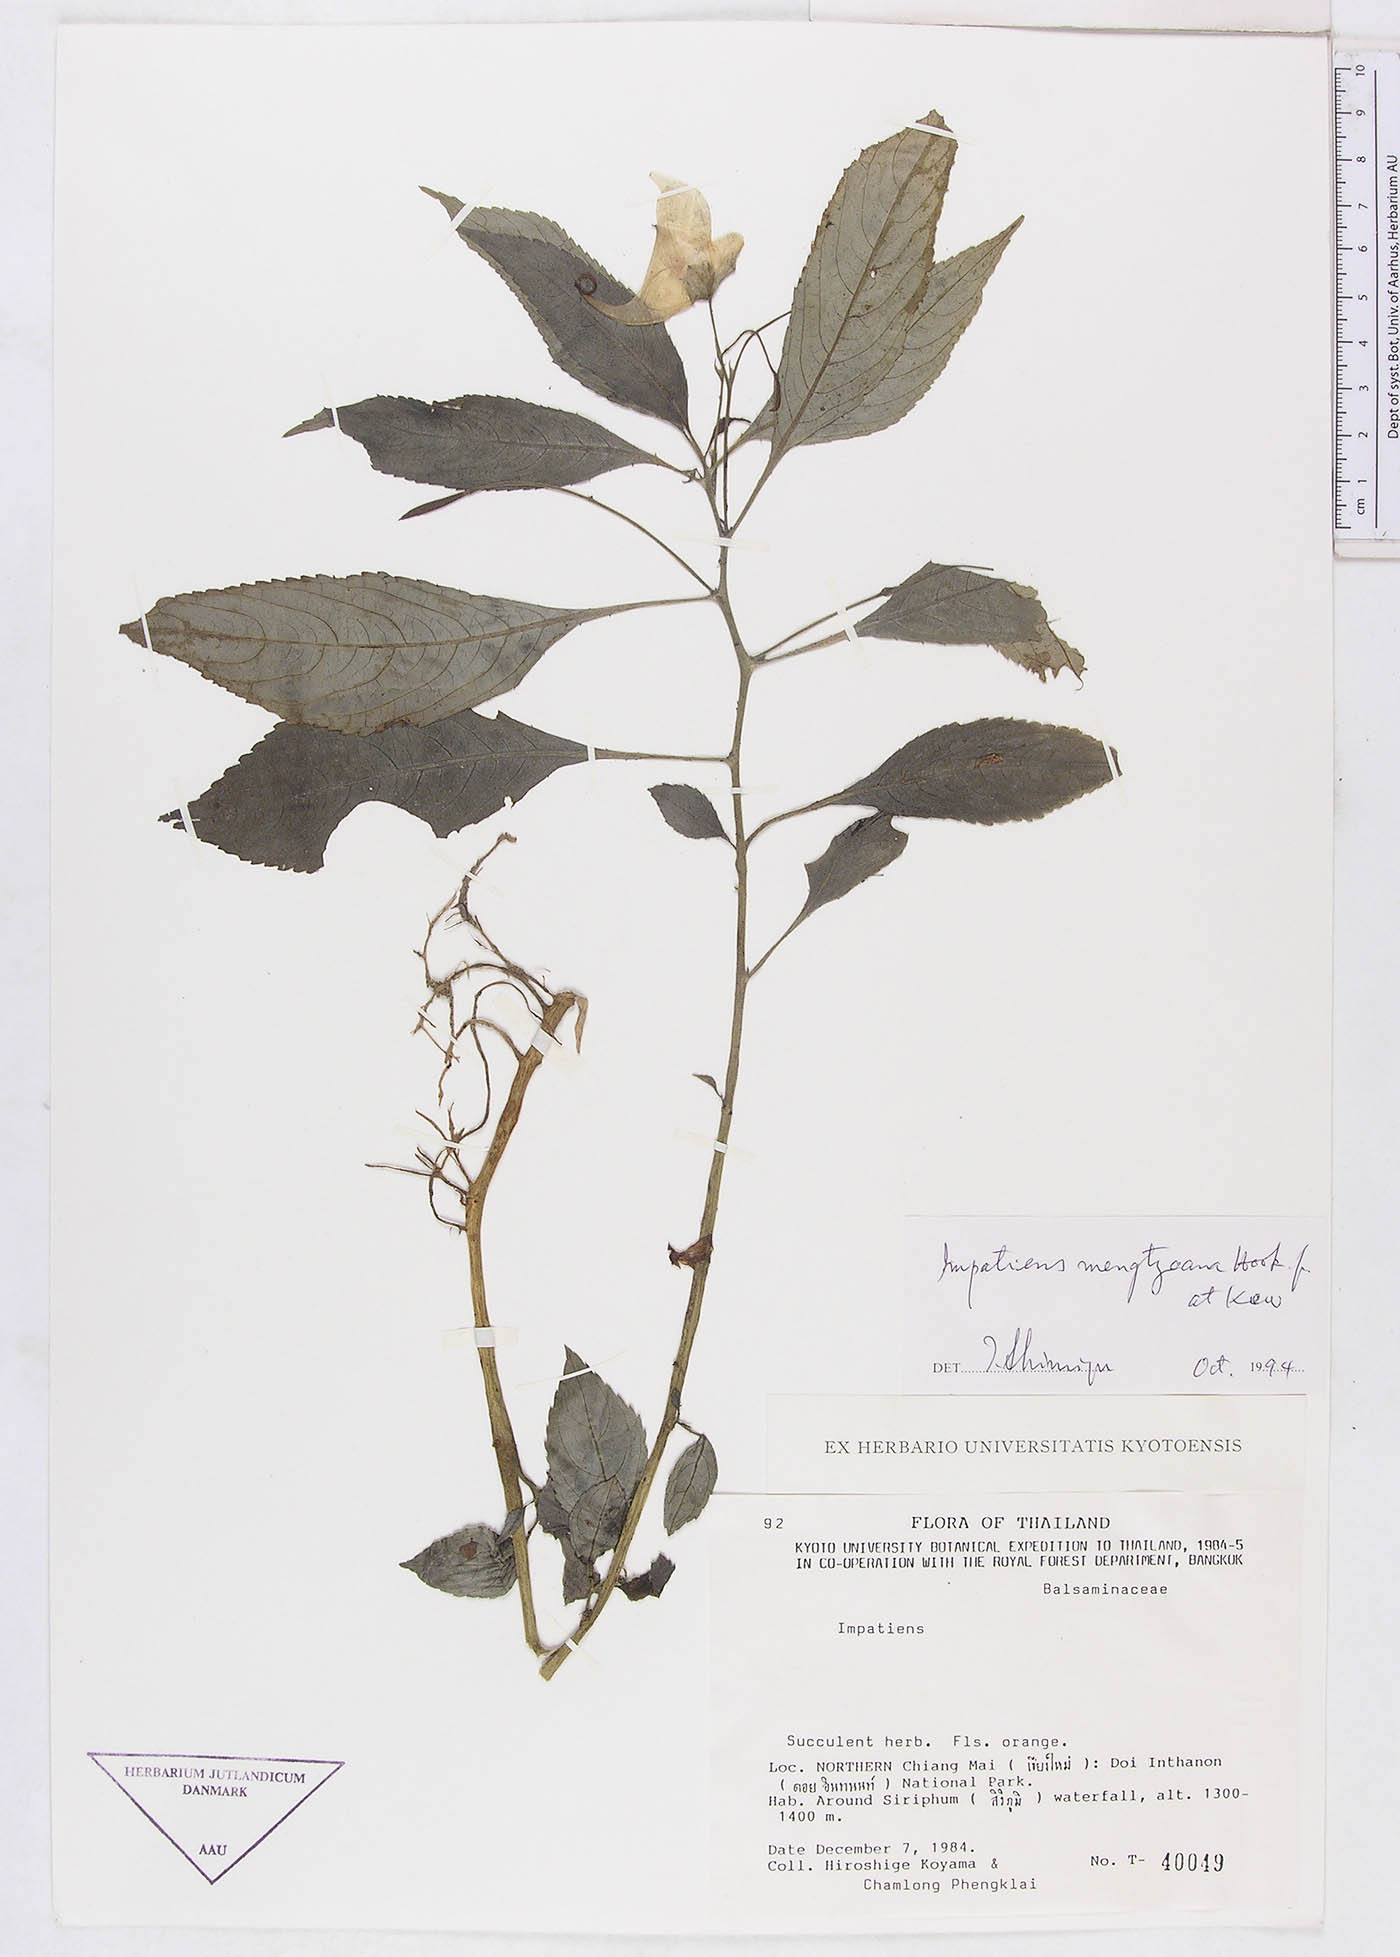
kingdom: Plantae
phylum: Tracheophyta
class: Magnoliopsida
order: Ericales
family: Balsaminaceae
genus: Impatiens
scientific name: Impatiens pulchra
